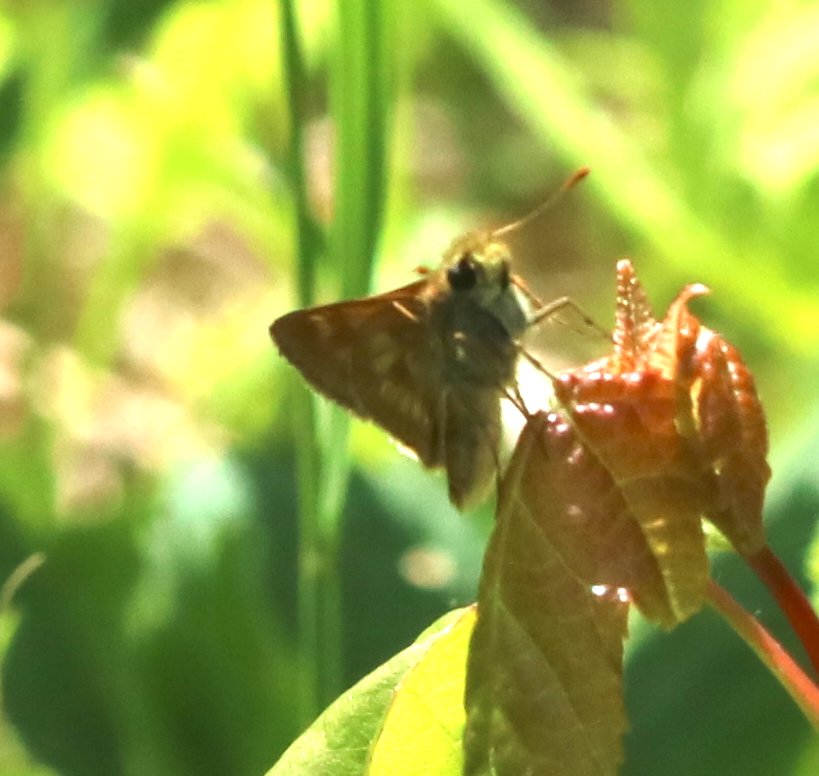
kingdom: Animalia
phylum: Arthropoda
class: Insecta
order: Lepidoptera
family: Hesperiidae
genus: Polites
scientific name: Polites
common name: Long Dash Skipper
